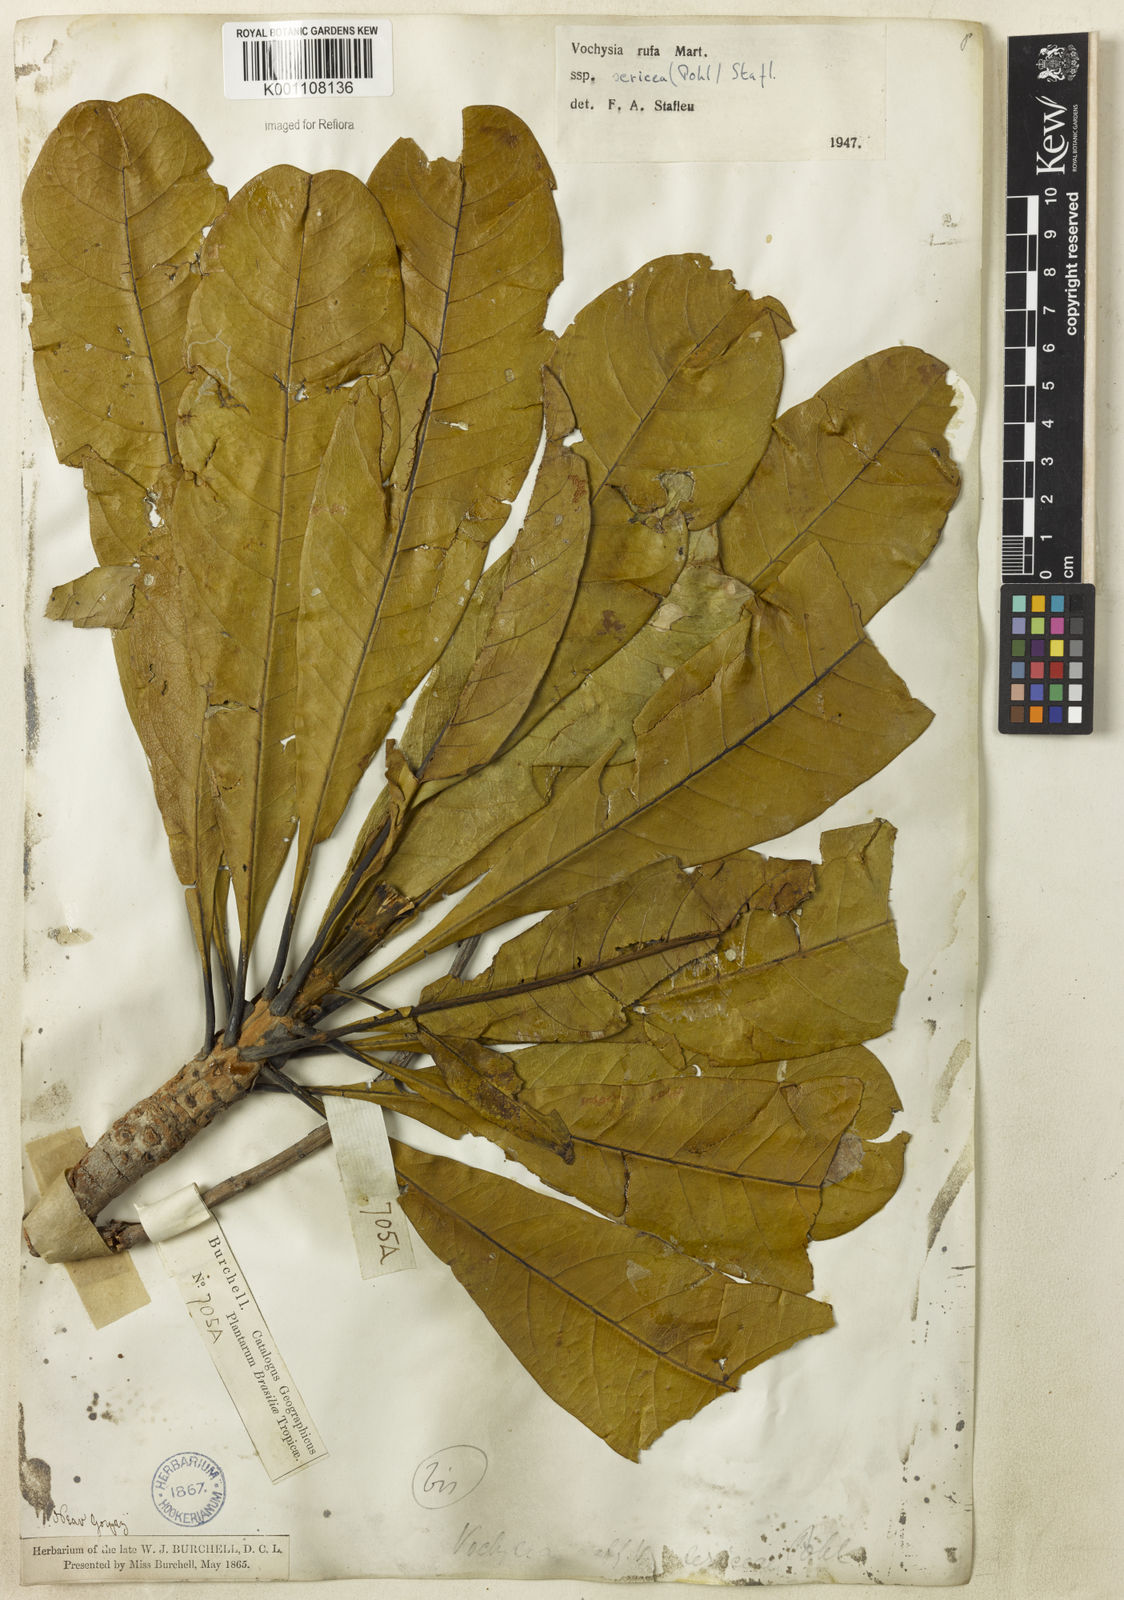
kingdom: Plantae
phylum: Tracheophyta
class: Magnoliopsida
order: Myrtales
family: Vochysiaceae
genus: Vochysia
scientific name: Vochysia rufa
